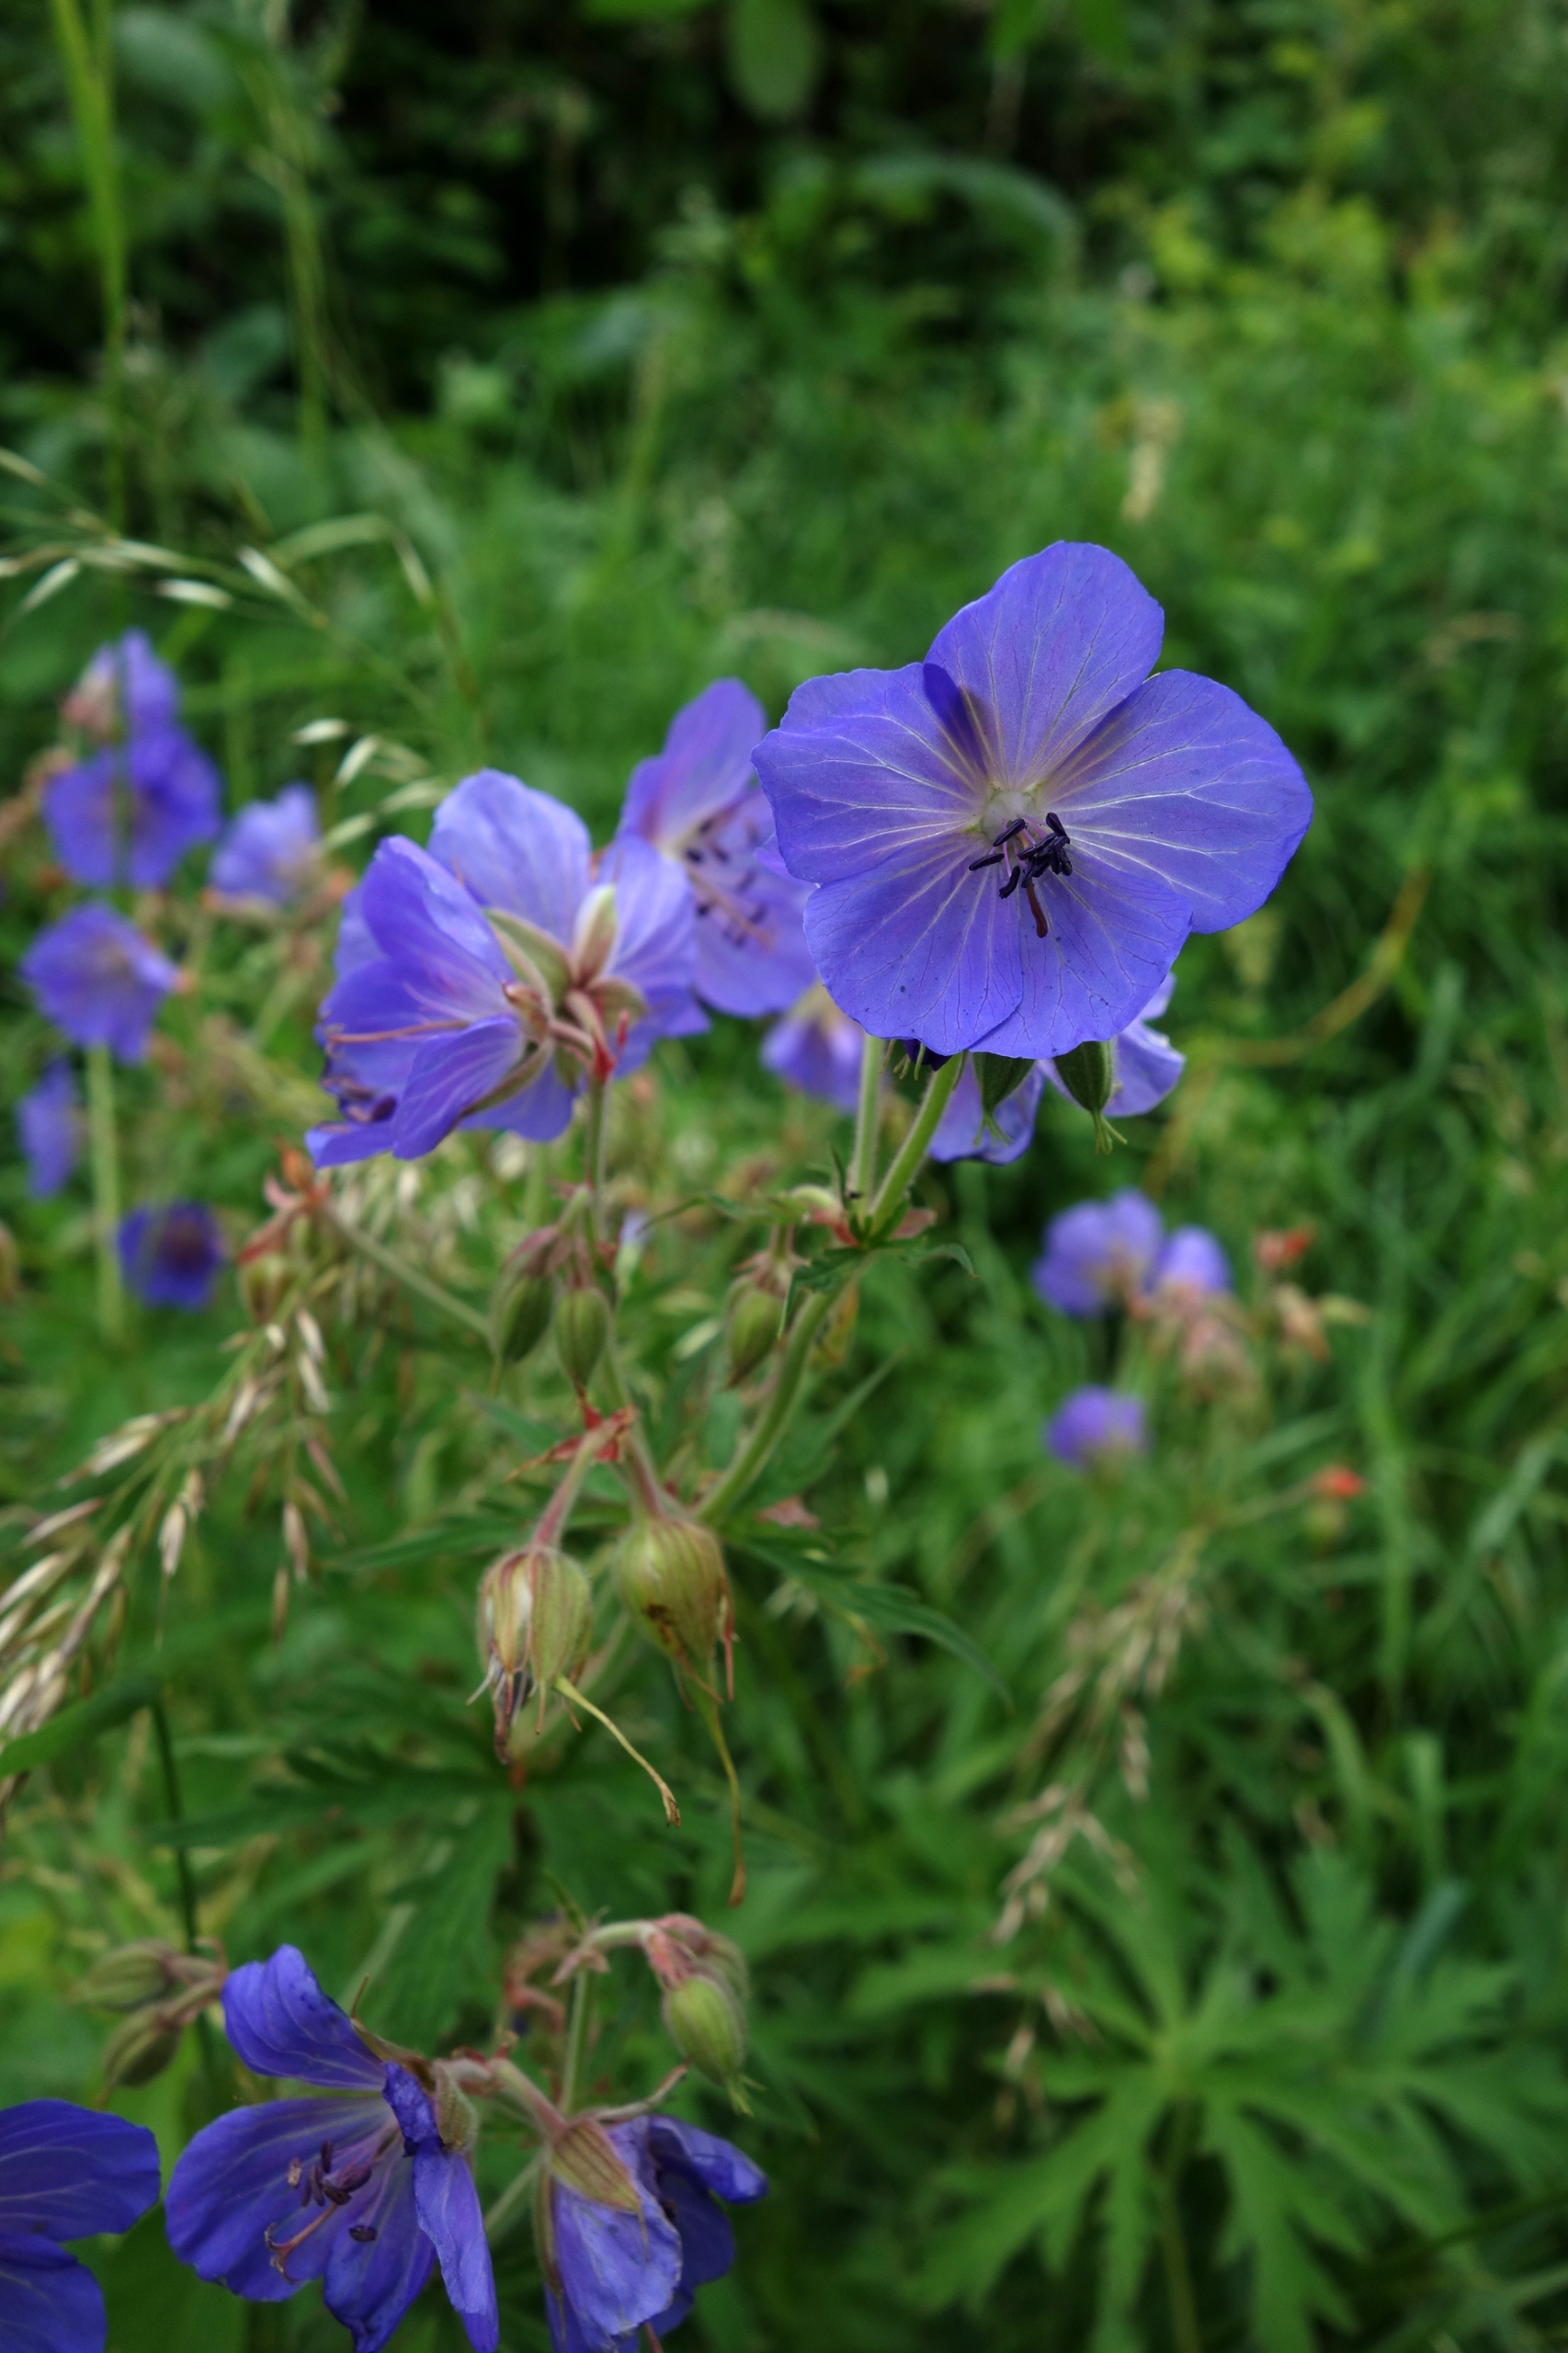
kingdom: Plantae
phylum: Tracheophyta
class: Magnoliopsida
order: Geraniales
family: Geraniaceae
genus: Geranium
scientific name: Geranium pratense
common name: Eng-storkenæb
